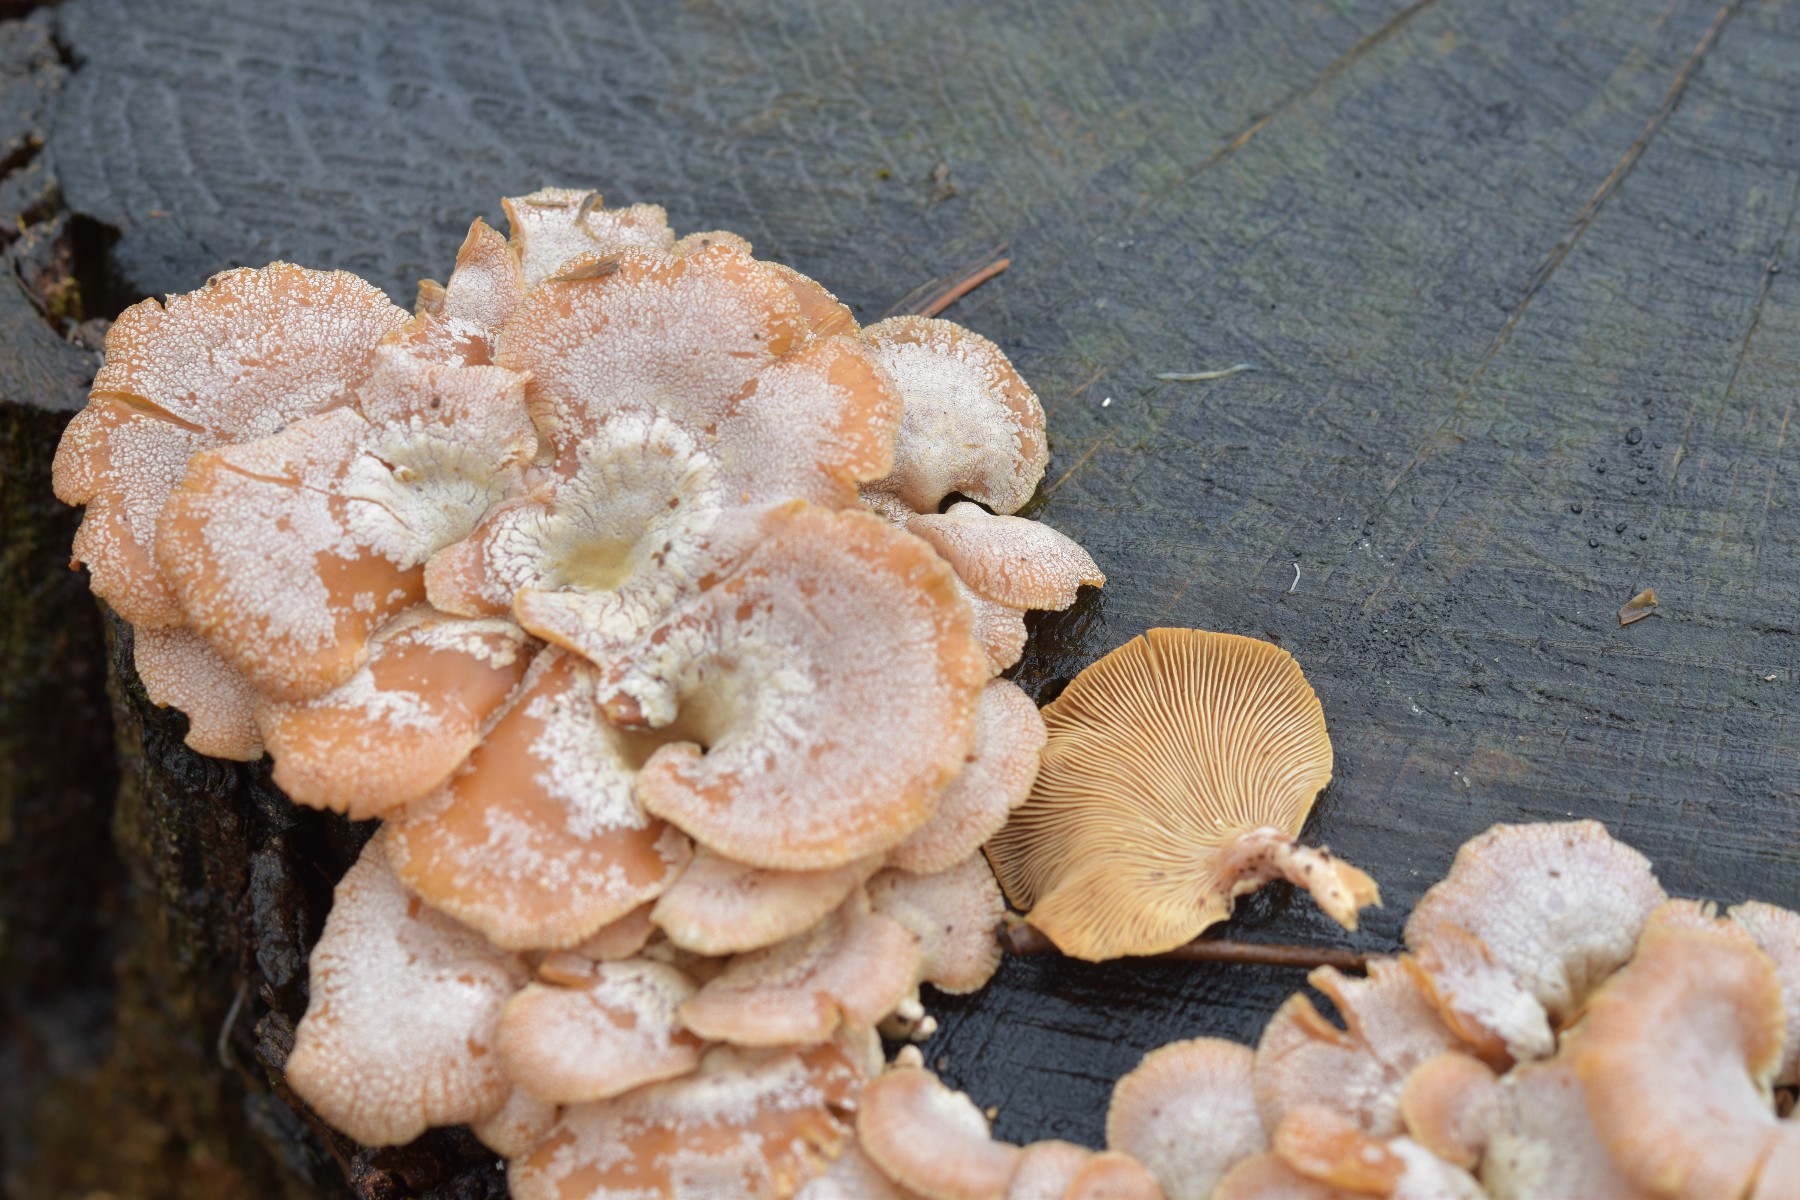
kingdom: Fungi
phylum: Basidiomycota
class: Agaricomycetes
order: Agaricales
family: Mycenaceae
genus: Panellus
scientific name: Panellus stipticus
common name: kliddet epaulethat
